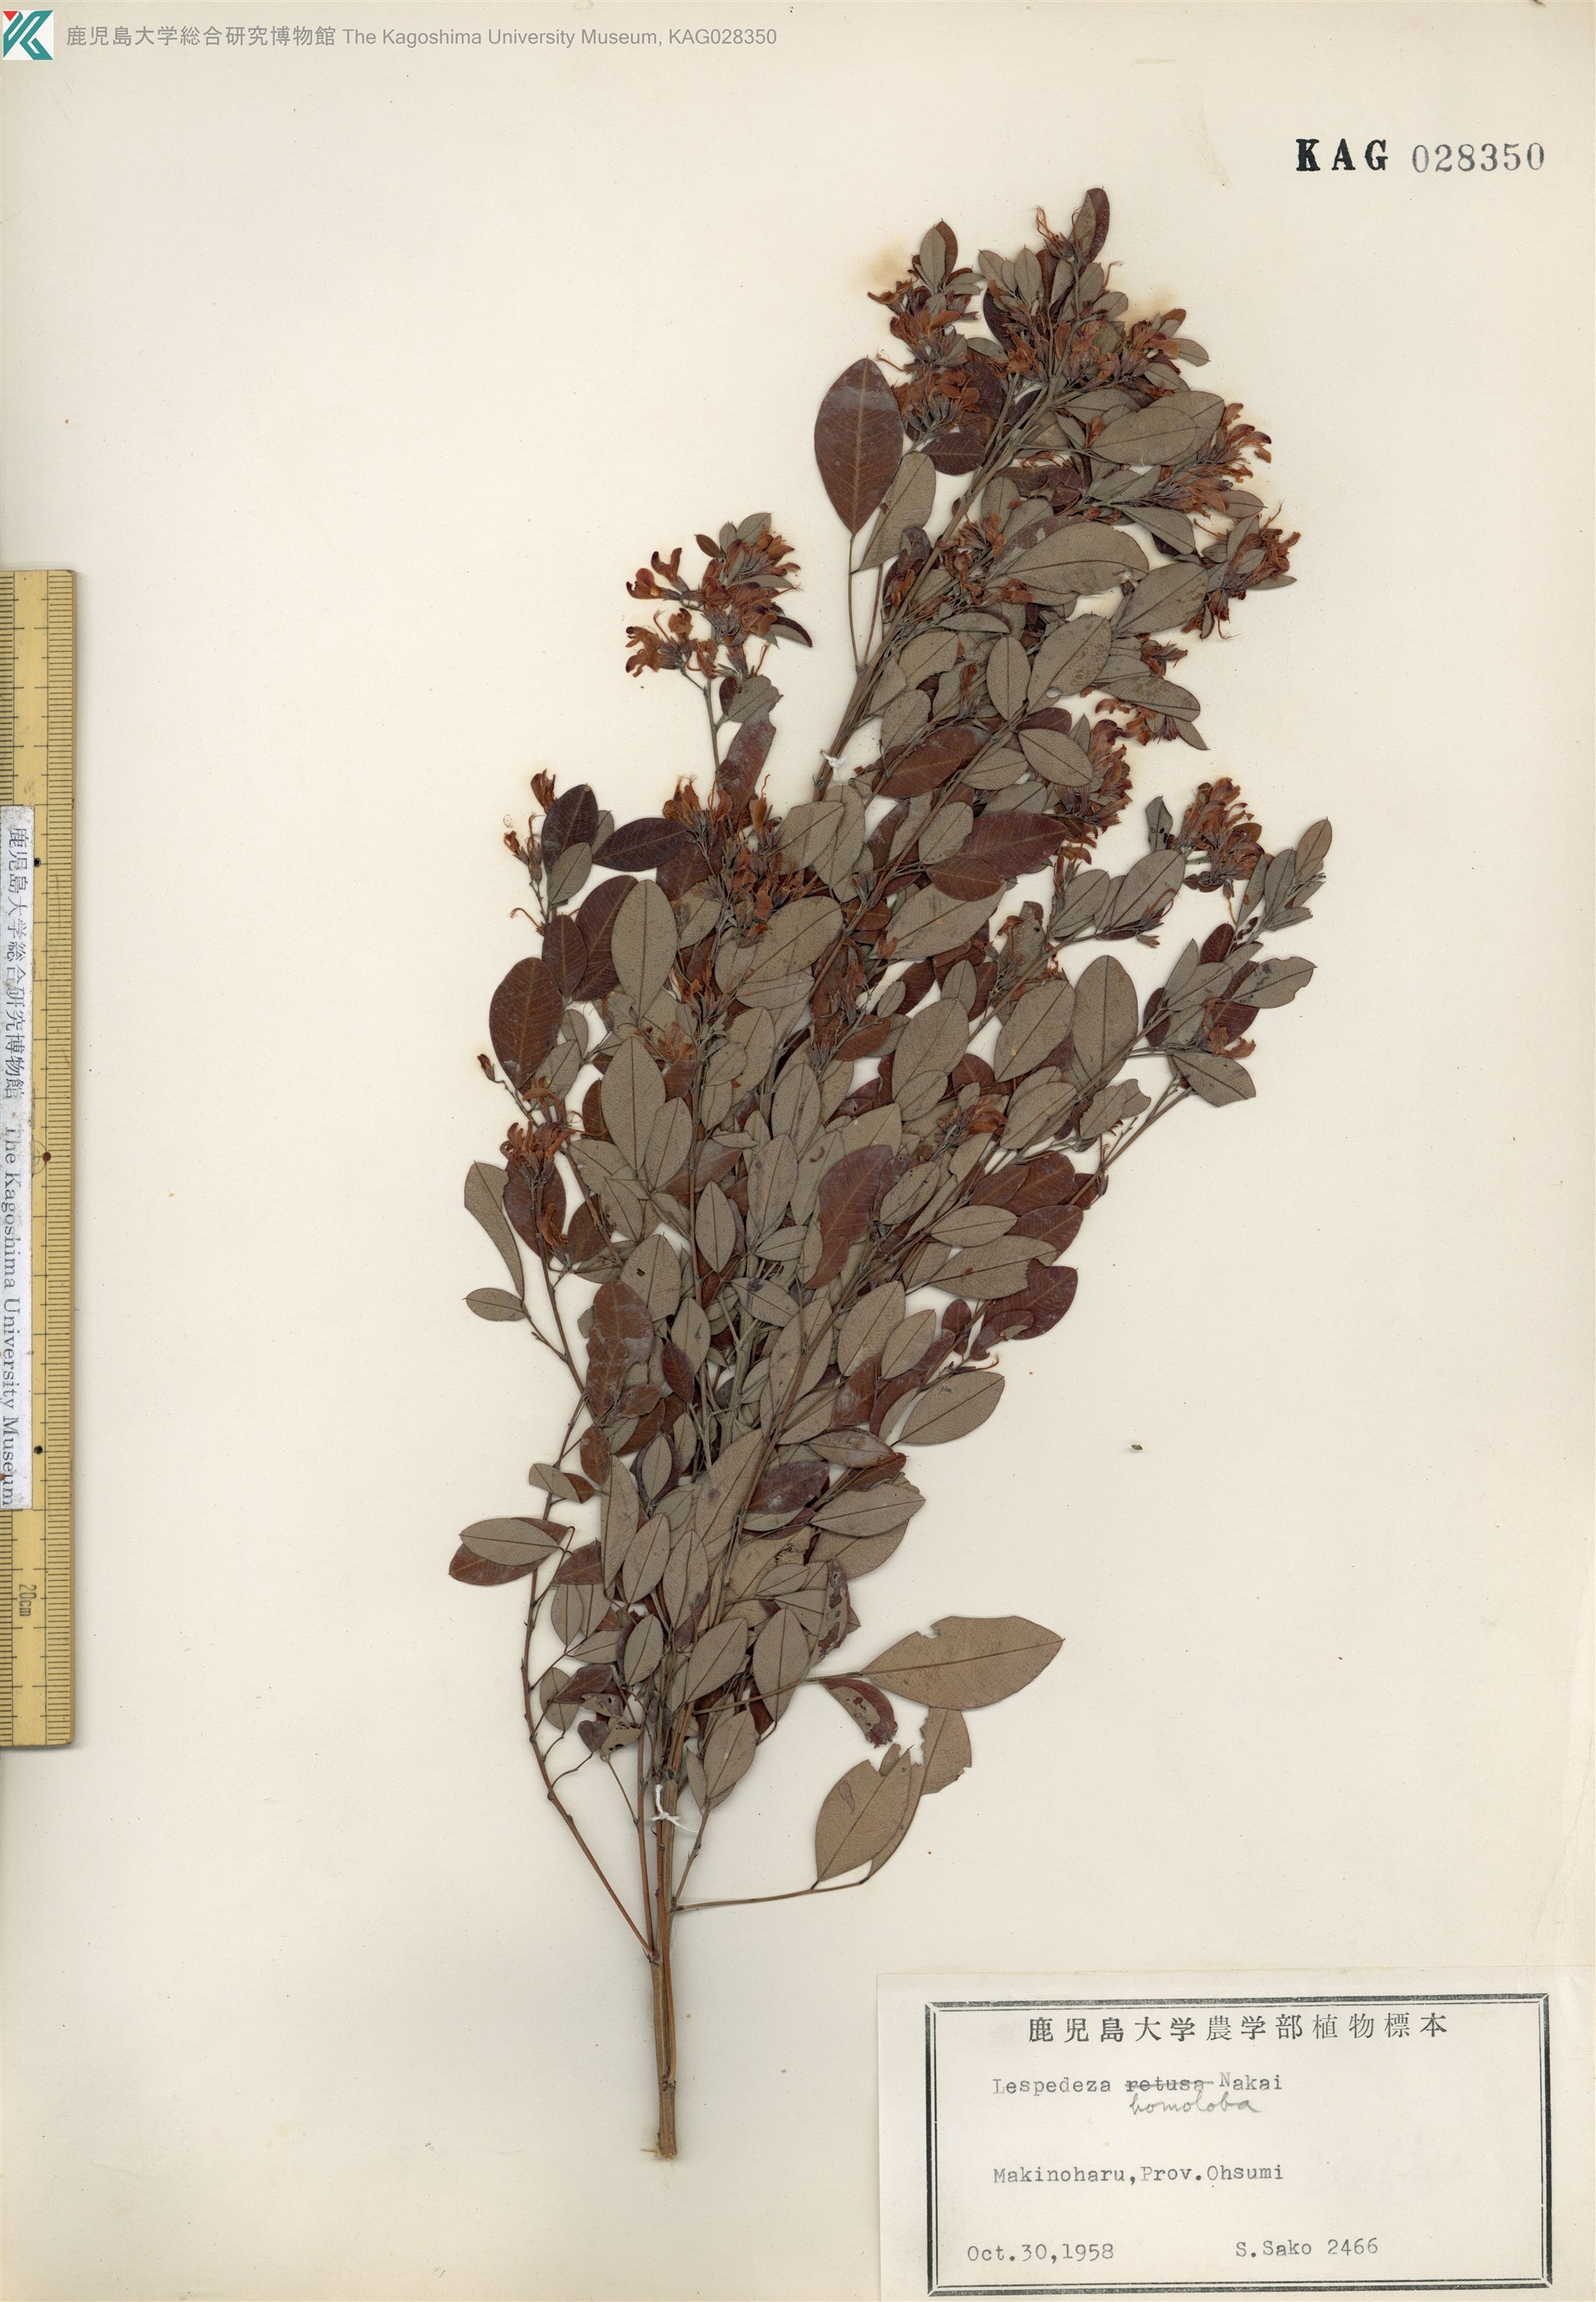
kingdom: Plantae
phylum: Tracheophyta
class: Magnoliopsida
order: Fabales
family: Fabaceae
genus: Lespedeza
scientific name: Lespedeza homoloba
